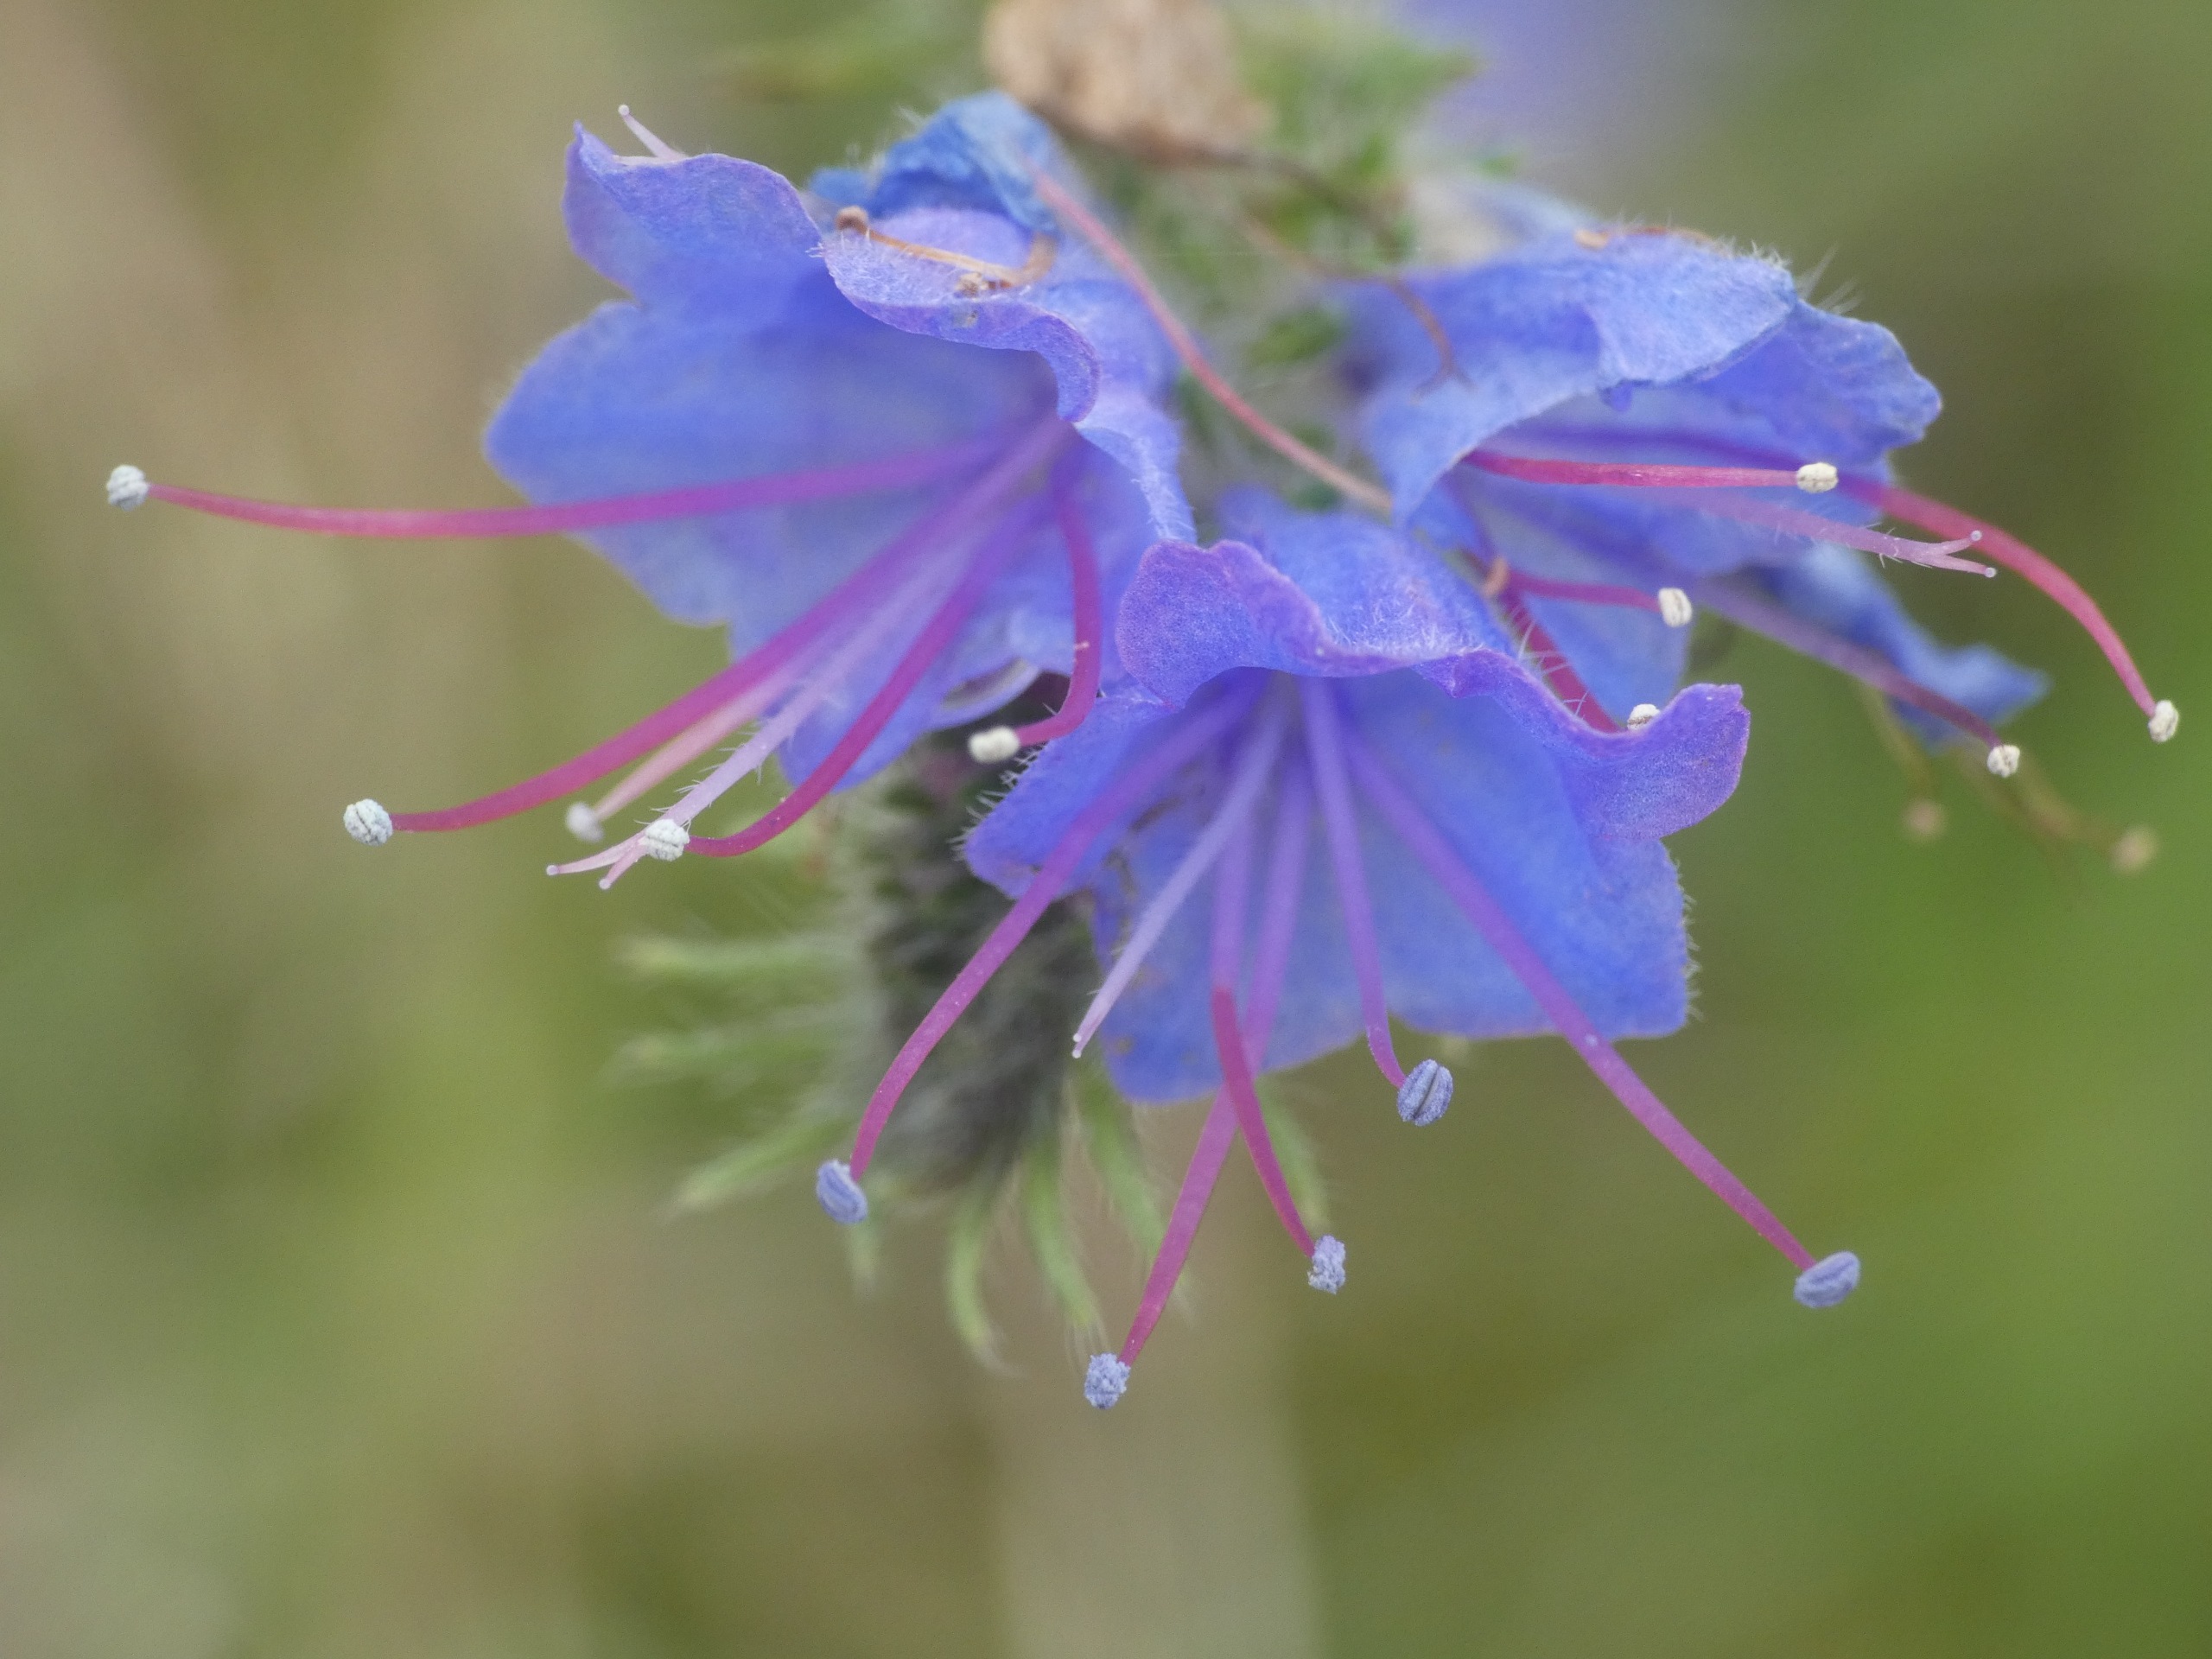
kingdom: Plantae
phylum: Tracheophyta
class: Magnoliopsida
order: Boraginales
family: Boraginaceae
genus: Echium
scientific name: Echium vulgare
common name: Slangehoved
